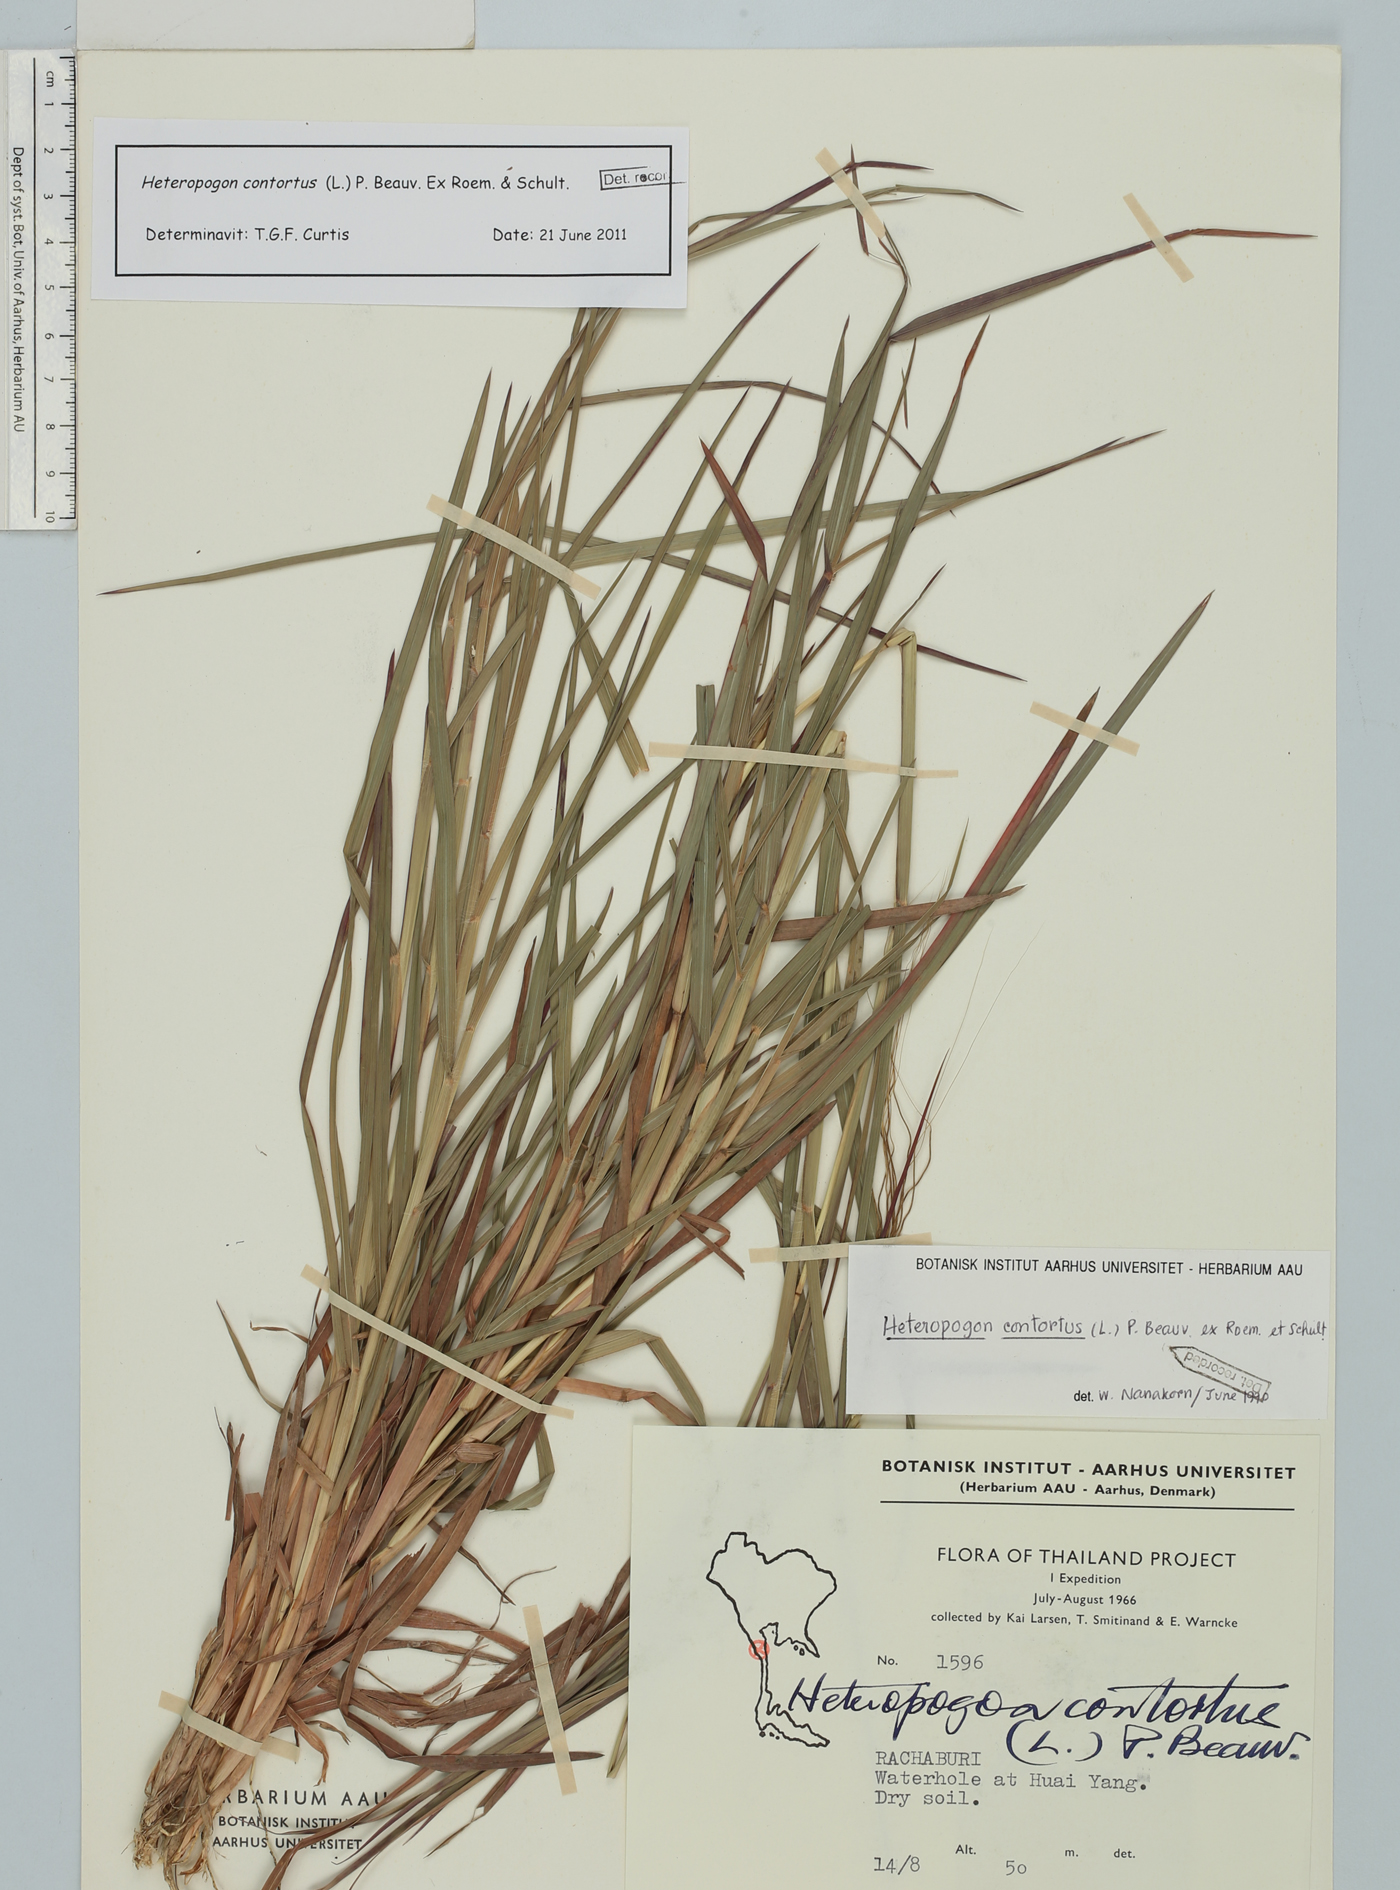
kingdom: Plantae
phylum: Tracheophyta
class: Liliopsida
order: Poales
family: Poaceae
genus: Heteropogon
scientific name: Heteropogon contortus
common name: Tanglehead
